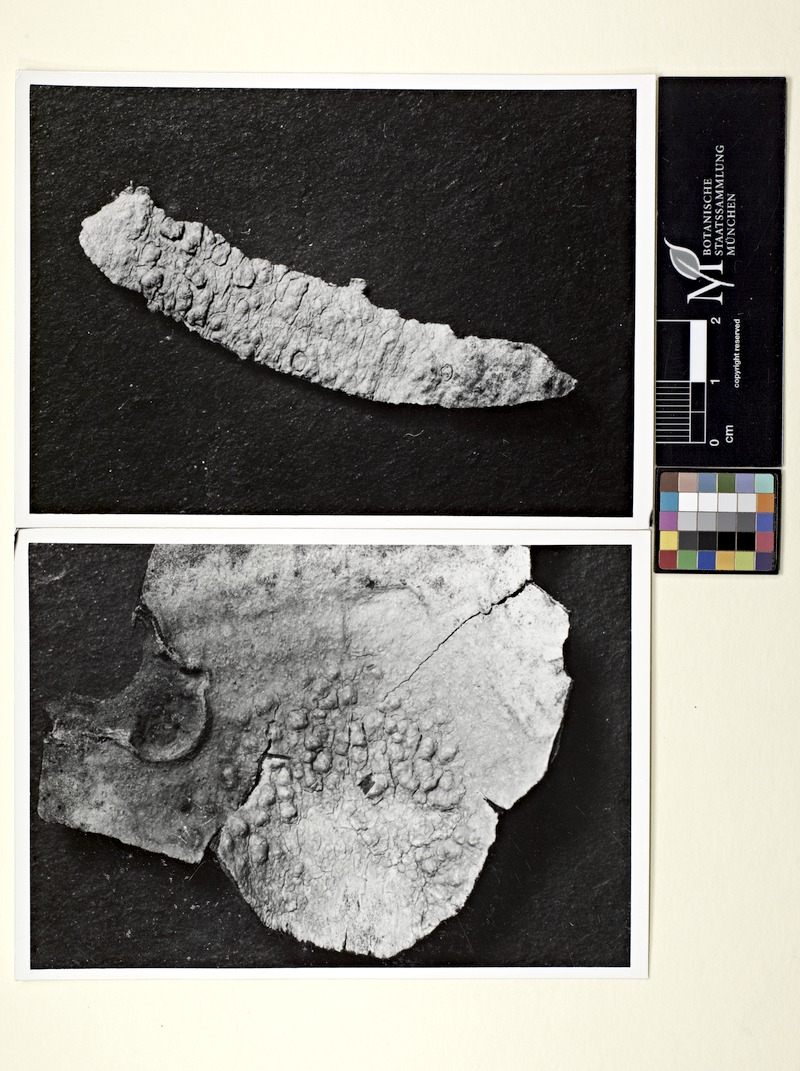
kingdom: Fungi
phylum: Ascomycota
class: Lecanoromycetes
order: Pertusariales
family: Pertusariaceae
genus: Pertusaria
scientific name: Pertusaria heterochroa
